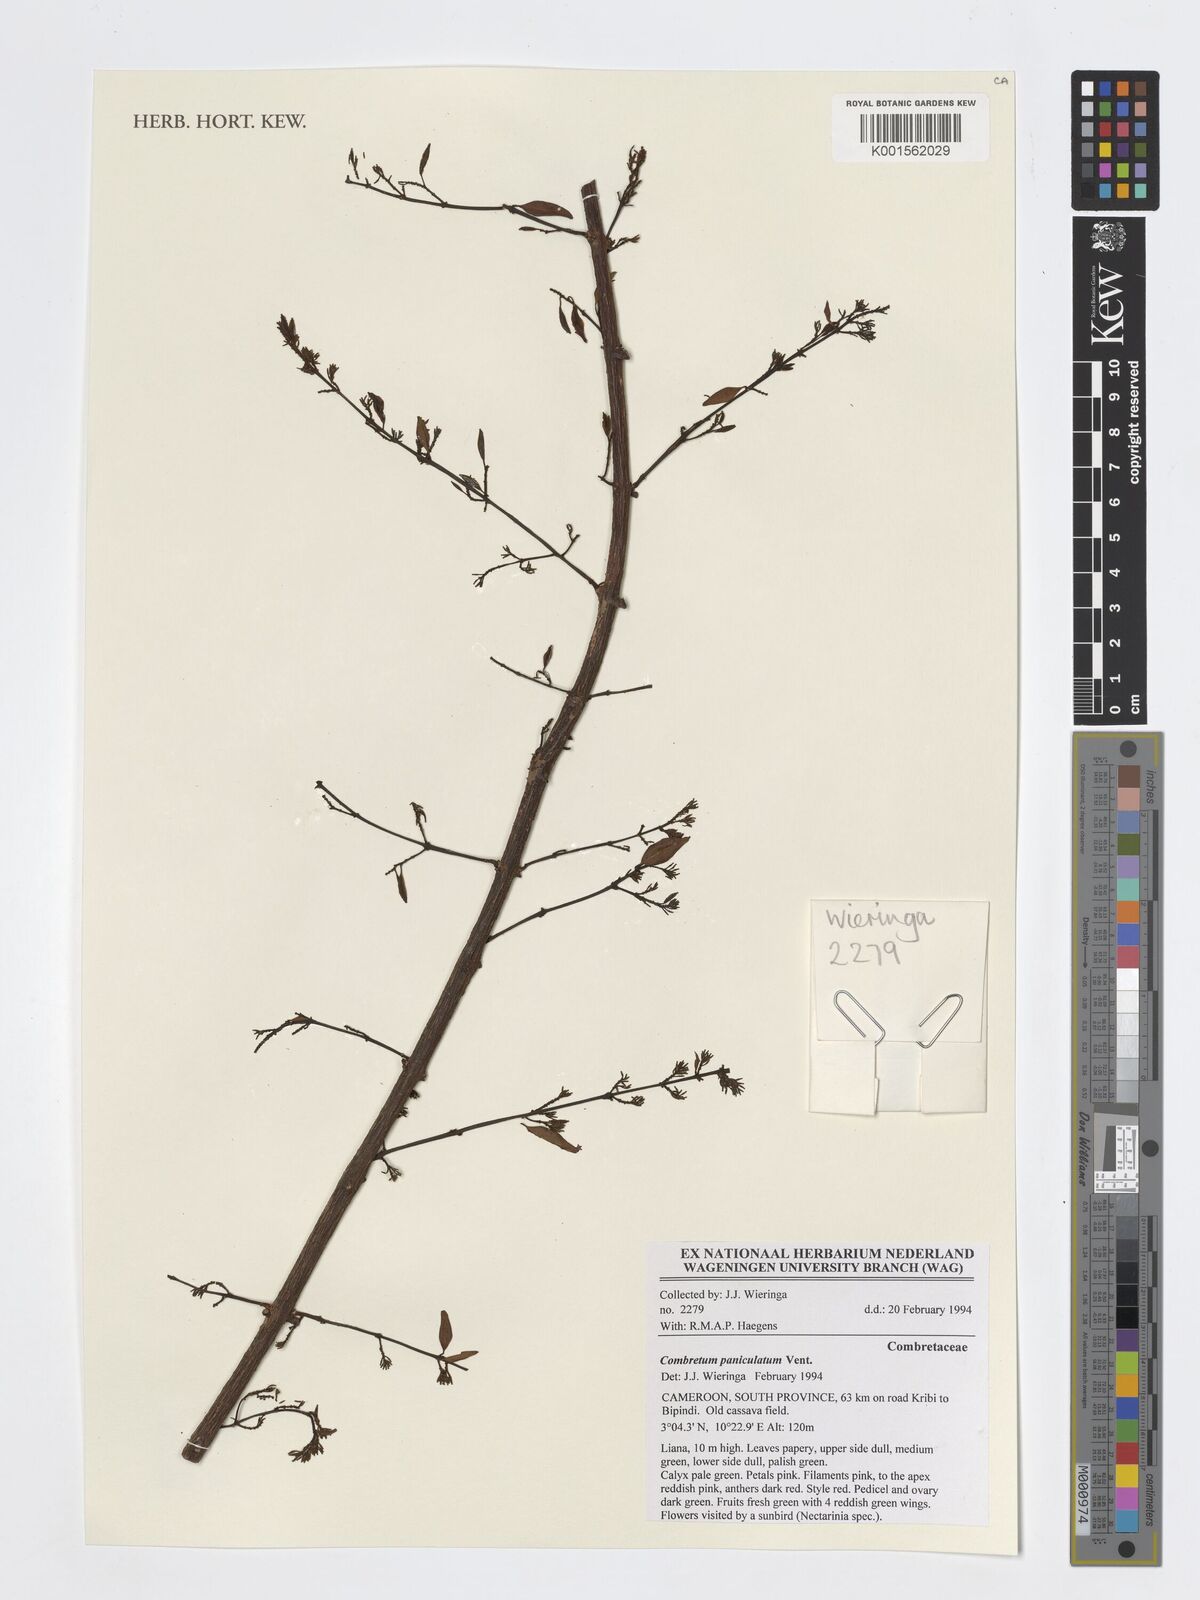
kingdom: Plantae
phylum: Tracheophyta
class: Magnoliopsida
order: Myrtales
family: Combretaceae
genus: Combretum
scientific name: Combretum paniculatum
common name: Fire vine
